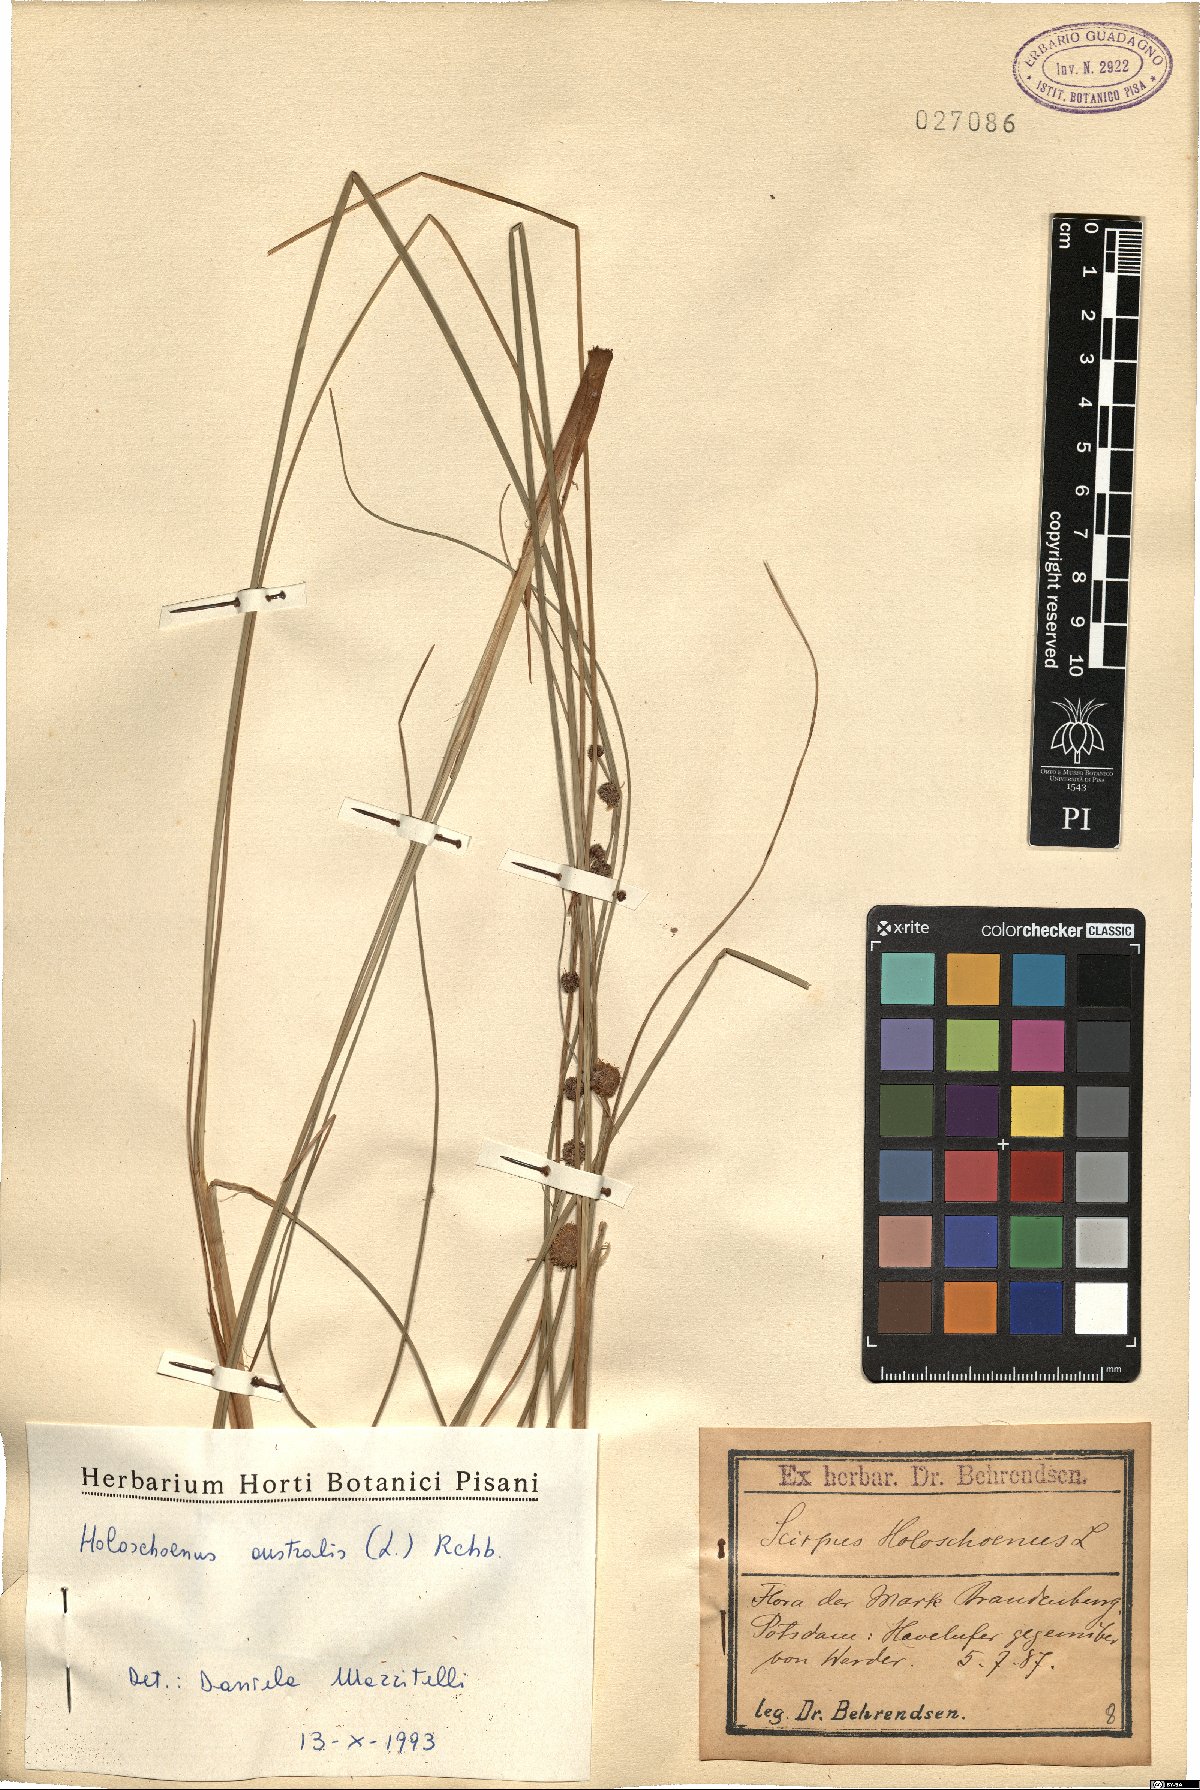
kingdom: Plantae
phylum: Tracheophyta
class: Liliopsida
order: Poales
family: Cyperaceae
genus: Scirpoides
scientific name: Scirpoides holoschoenus
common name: Round-headed club-rush
